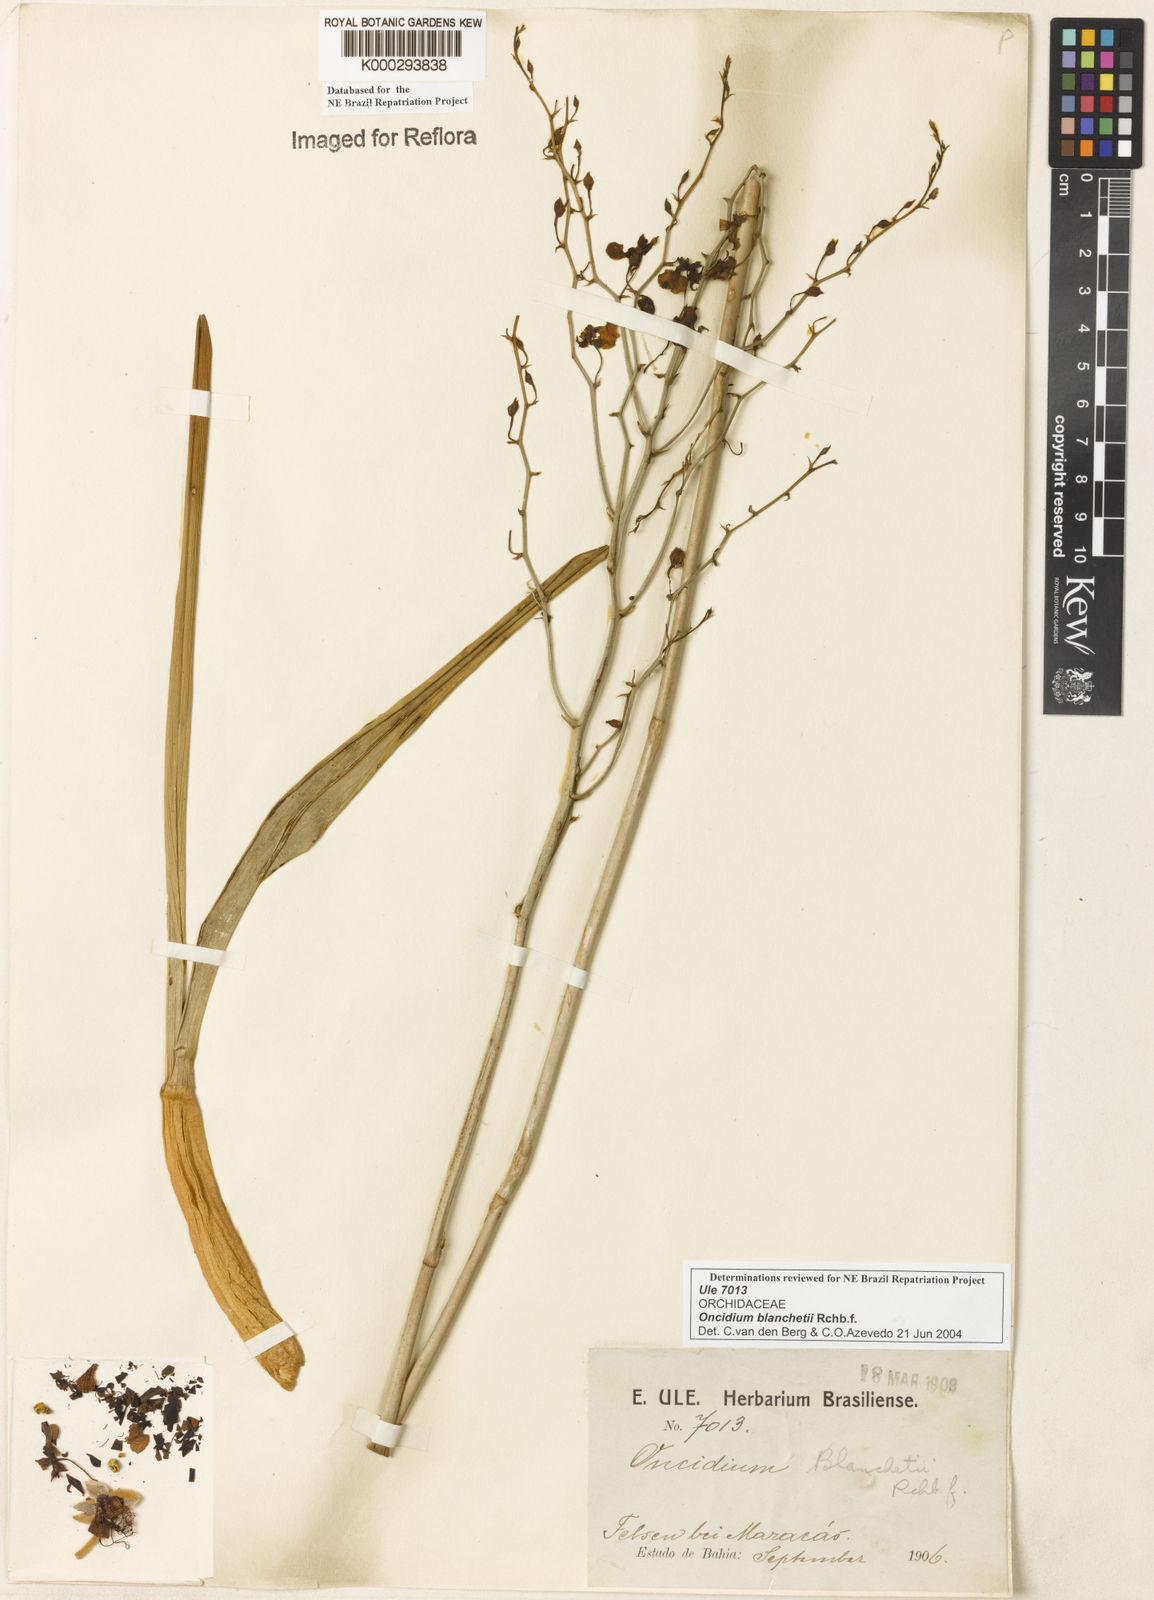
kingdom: Plantae
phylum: Tracheophyta
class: Liliopsida
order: Asparagales
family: Orchidaceae
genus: Gomesa
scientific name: Gomesa ramosa
